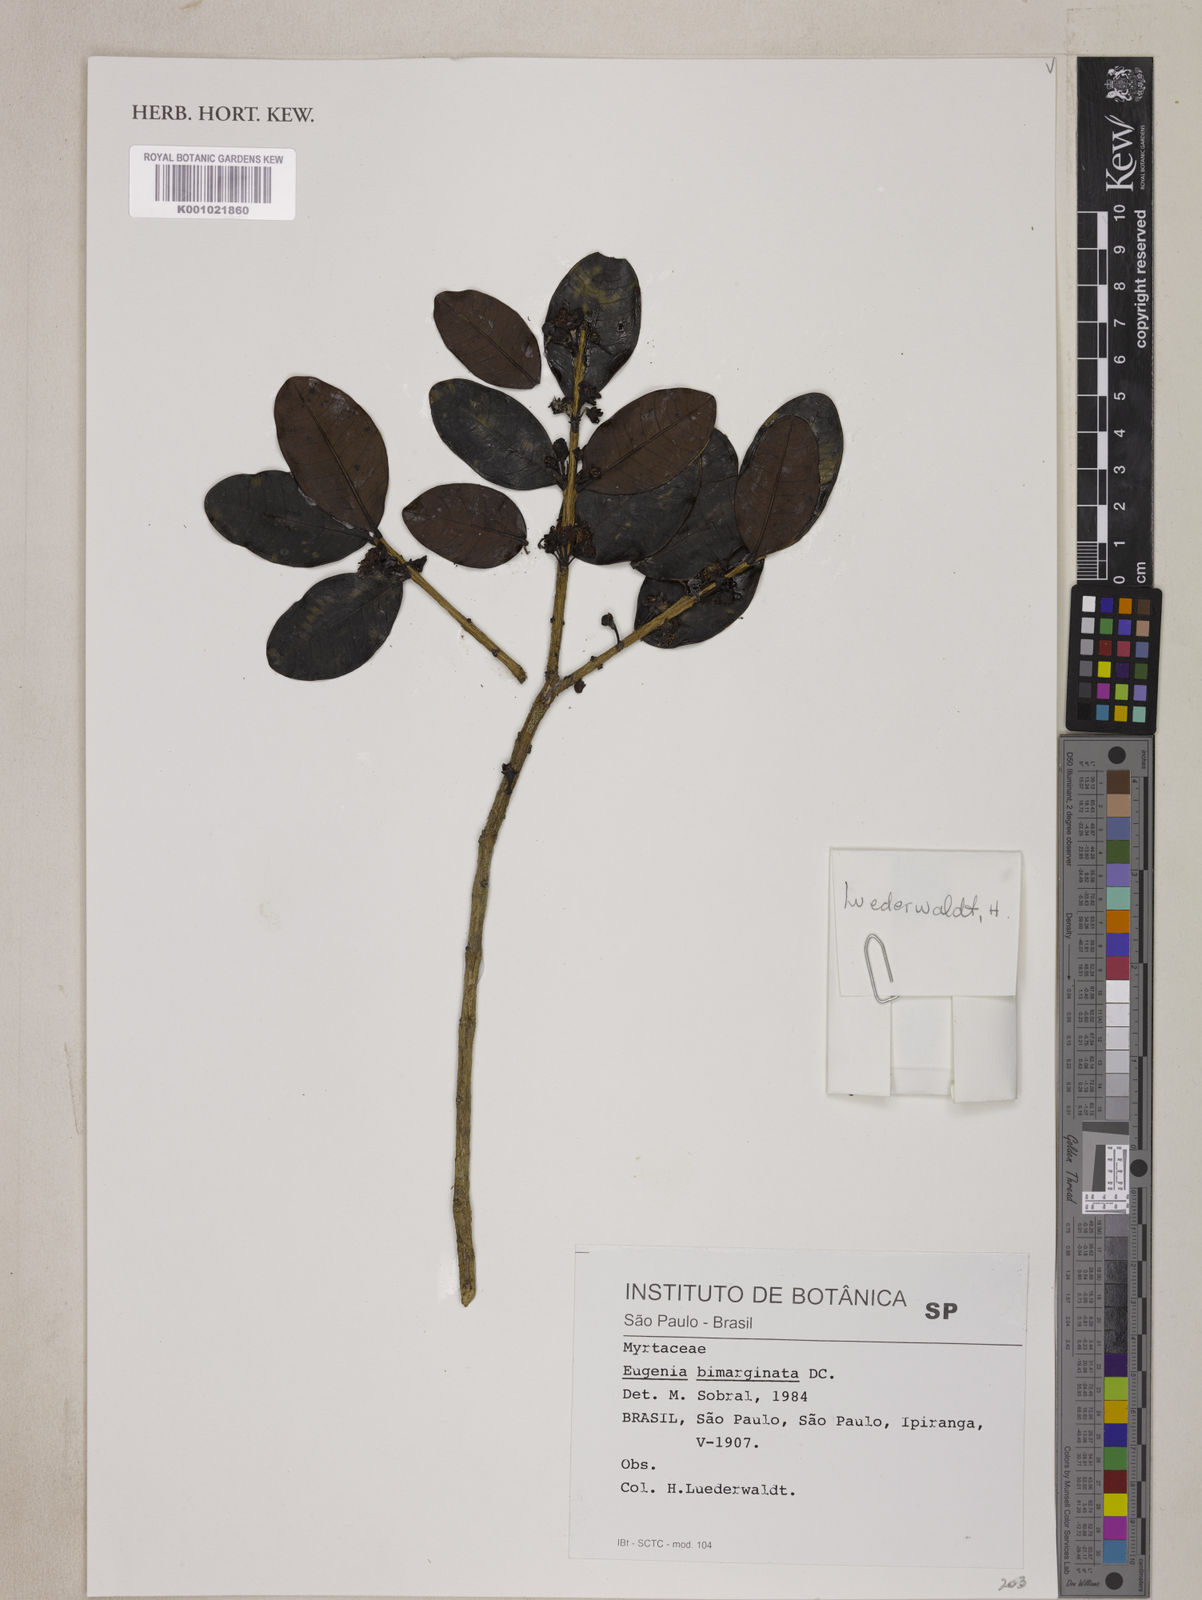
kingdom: Plantae
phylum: Tracheophyta
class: Magnoliopsida
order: Myrtales
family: Myrtaceae
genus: Eugenia
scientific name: Eugenia bimarginata
